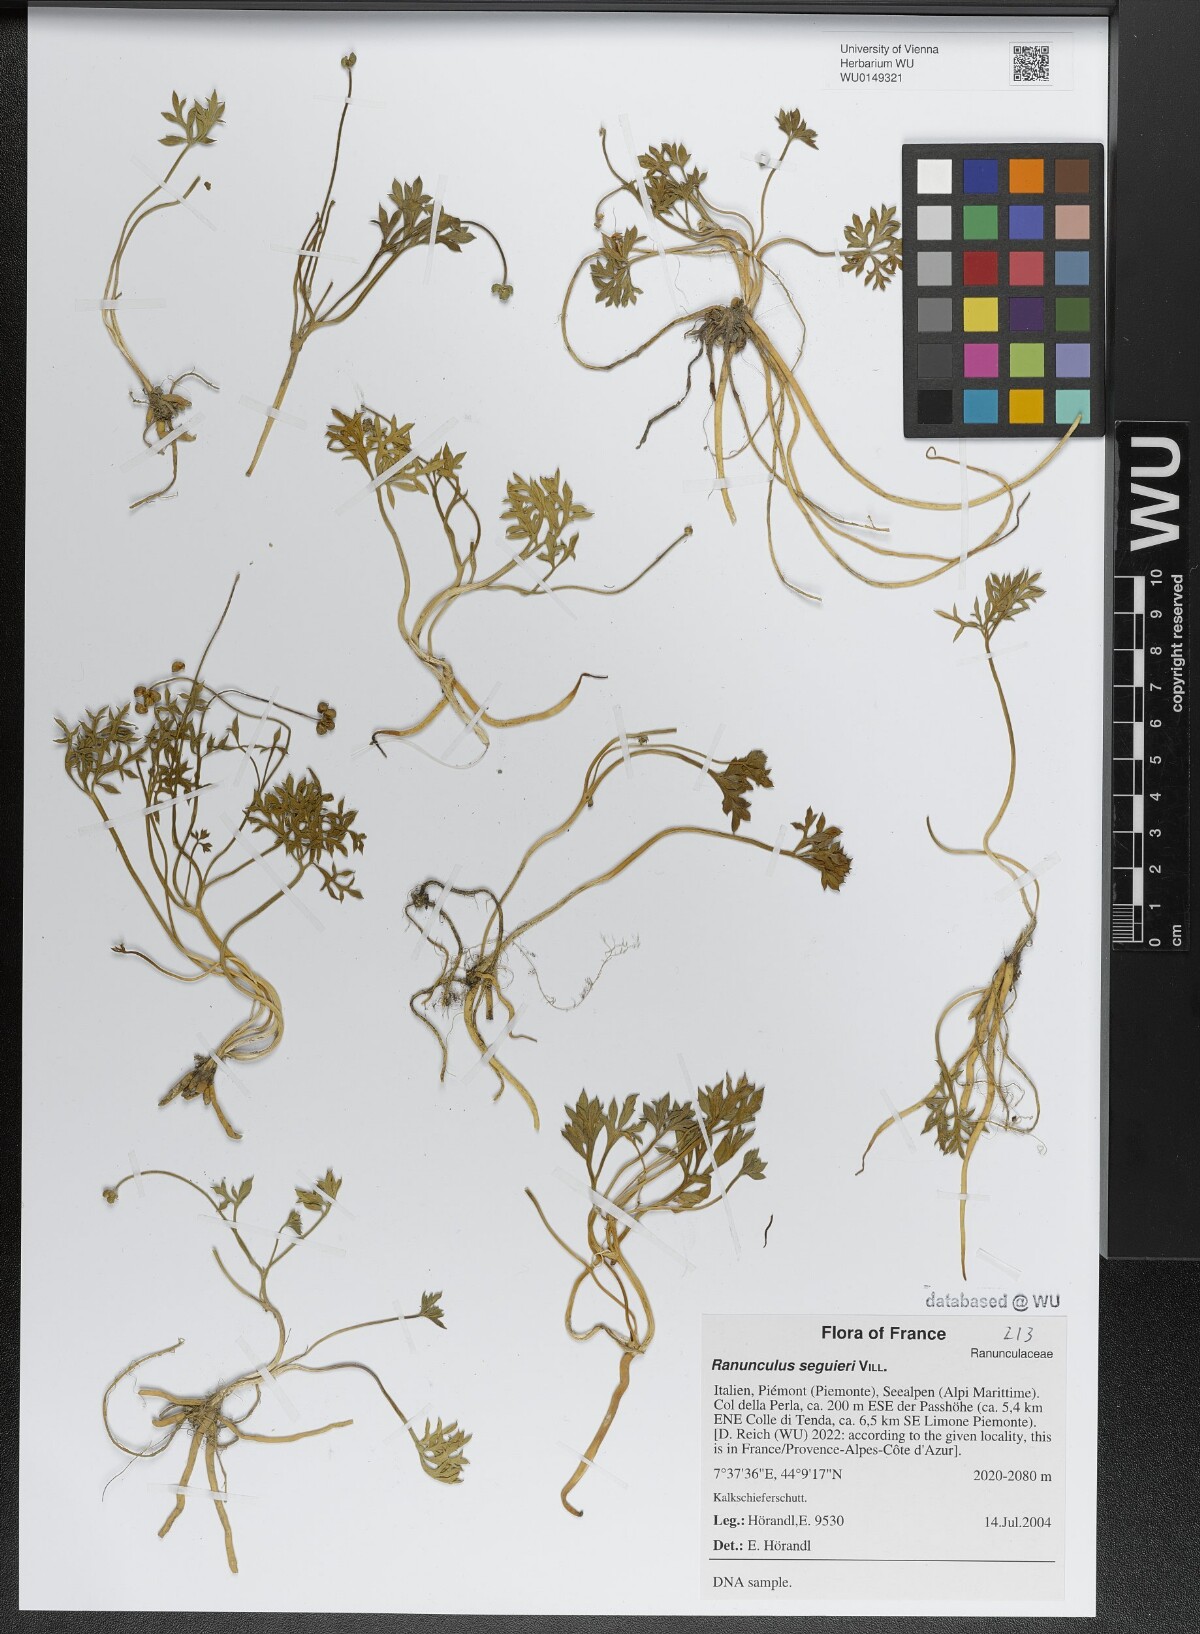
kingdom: Plantae
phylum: Tracheophyta
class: Magnoliopsida
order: Ranunculales
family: Ranunculaceae
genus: Ranunculus
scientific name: Ranunculus seguieri
